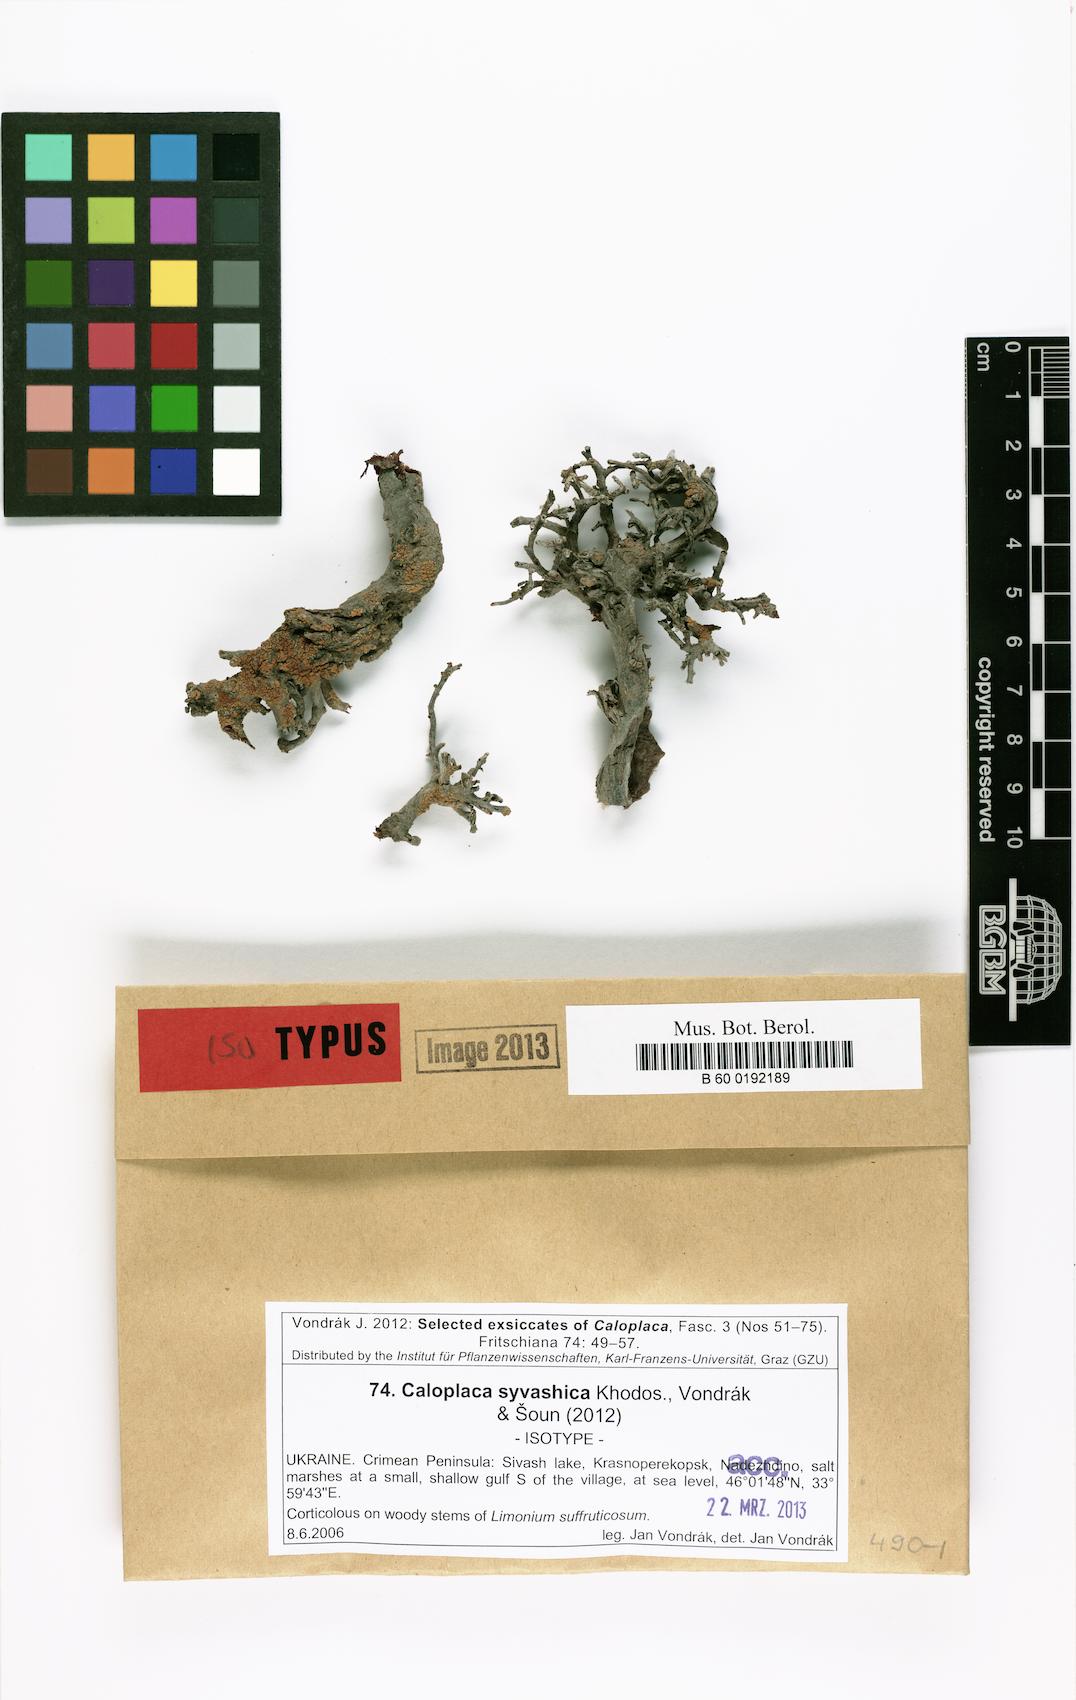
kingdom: Fungi
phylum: Ascomycota
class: Lecanoromycetes
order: Teloschistales
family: Teloschistaceae
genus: Rehmanniella
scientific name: Rehmanniella syvashica
